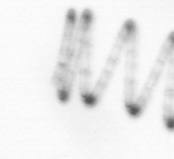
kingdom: Chromista
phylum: Ochrophyta
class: Bacillariophyceae
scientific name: Bacillariophyceae
